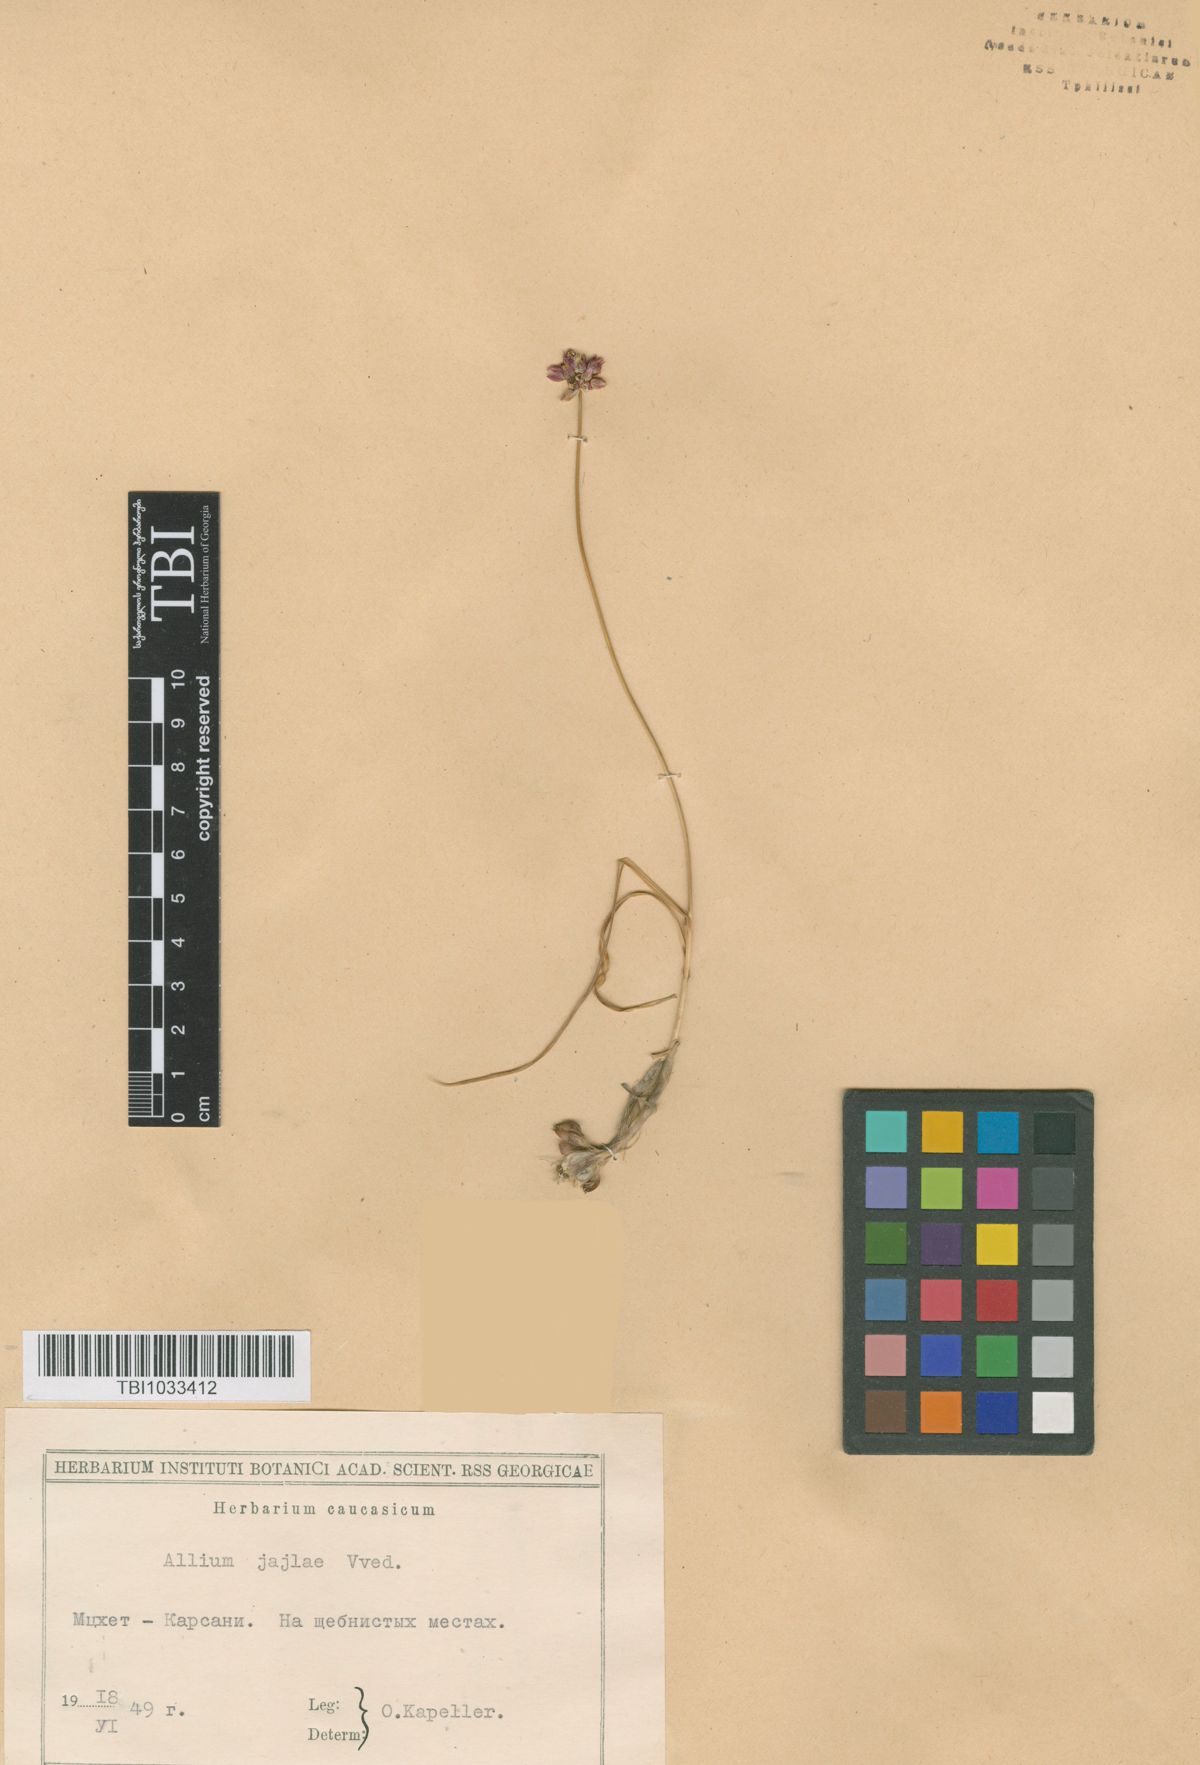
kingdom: Plantae
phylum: Tracheophyta
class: Liliopsida
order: Asparagales
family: Amaryllidaceae
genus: Allium
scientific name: Allium rotundum
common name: Sand leek
